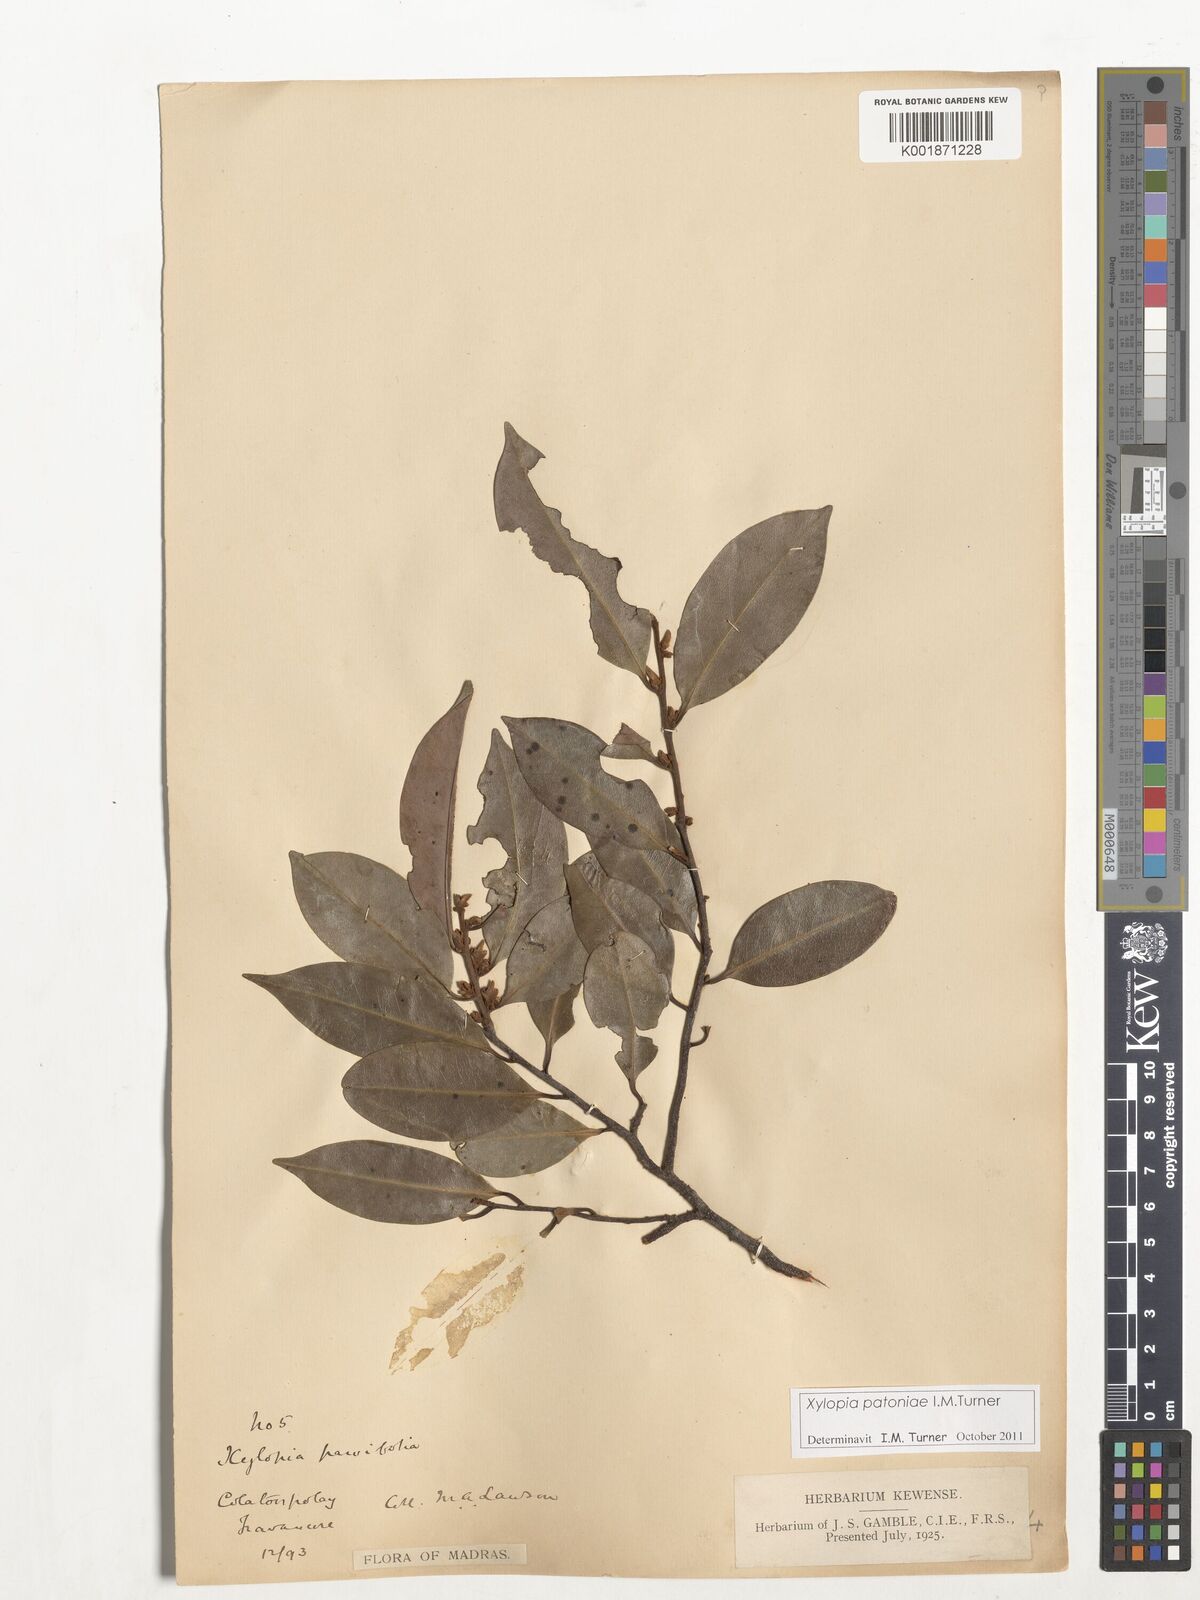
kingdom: Plantae
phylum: Tracheophyta
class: Magnoliopsida
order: Magnoliales
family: Annonaceae
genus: Xylopia
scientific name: Xylopia patoniae
